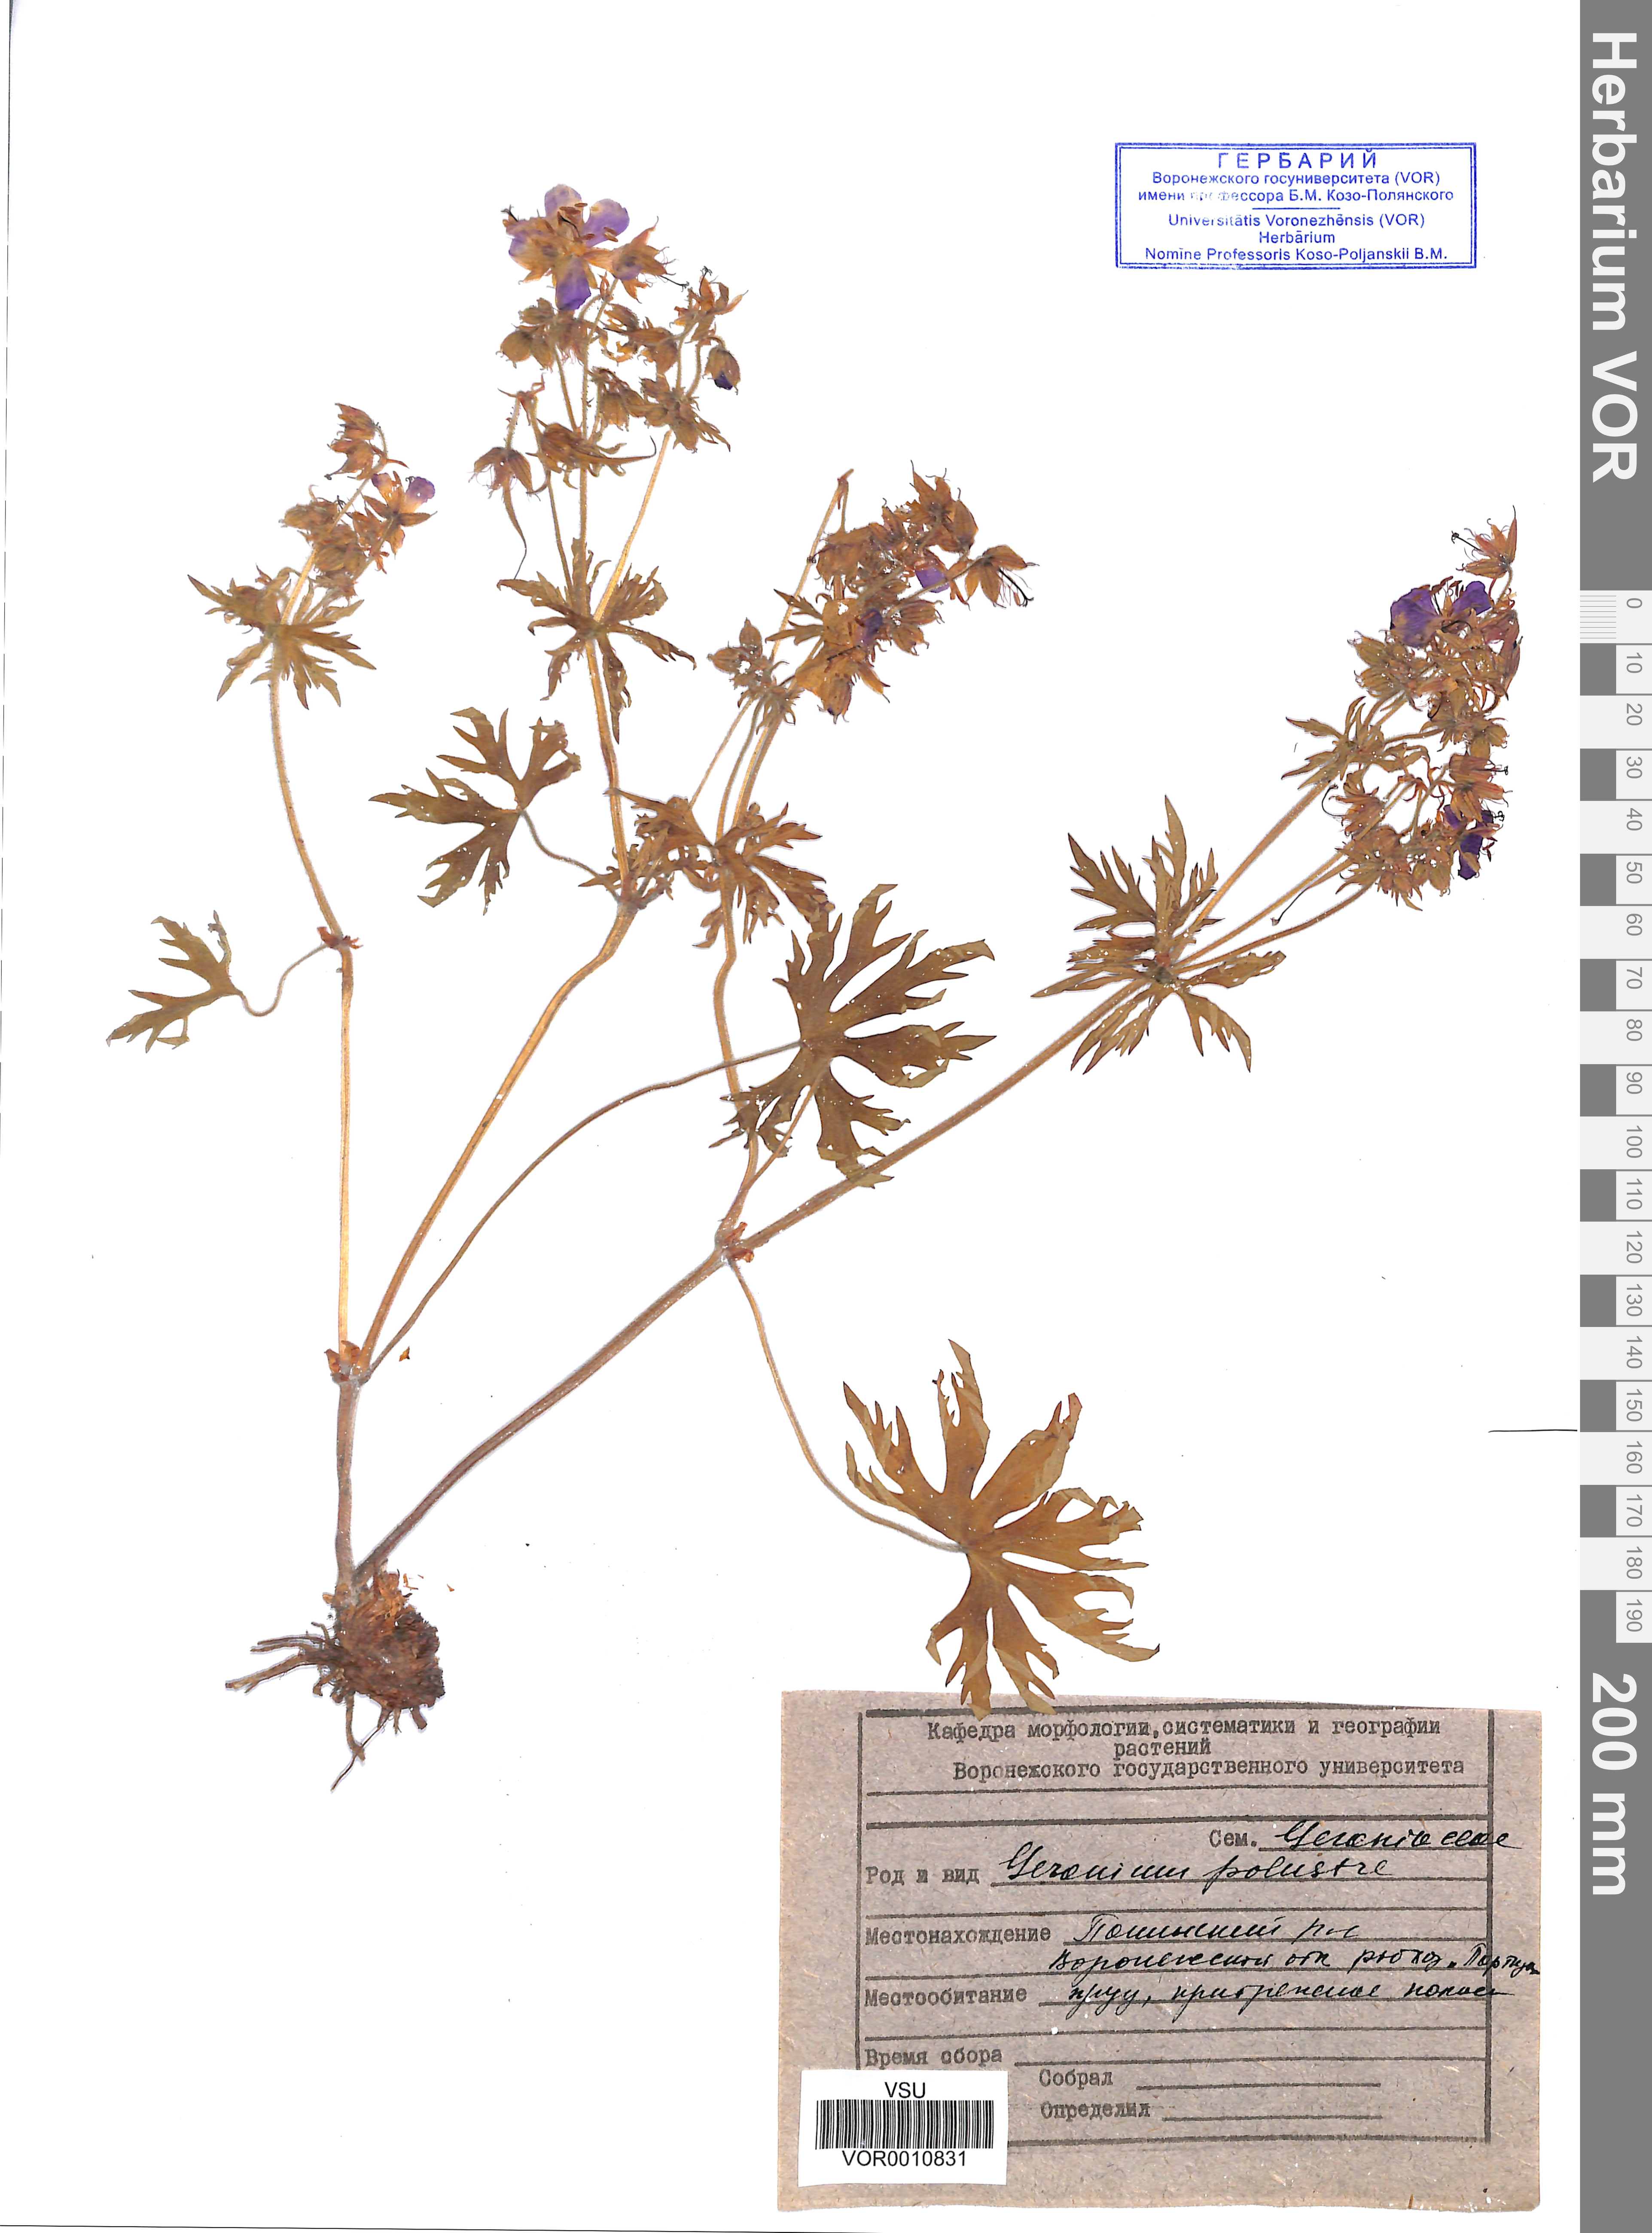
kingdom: Plantae
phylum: Tracheophyta
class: Magnoliopsida
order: Geraniales
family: Geraniaceae
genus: Geranium
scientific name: Geranium palustre
